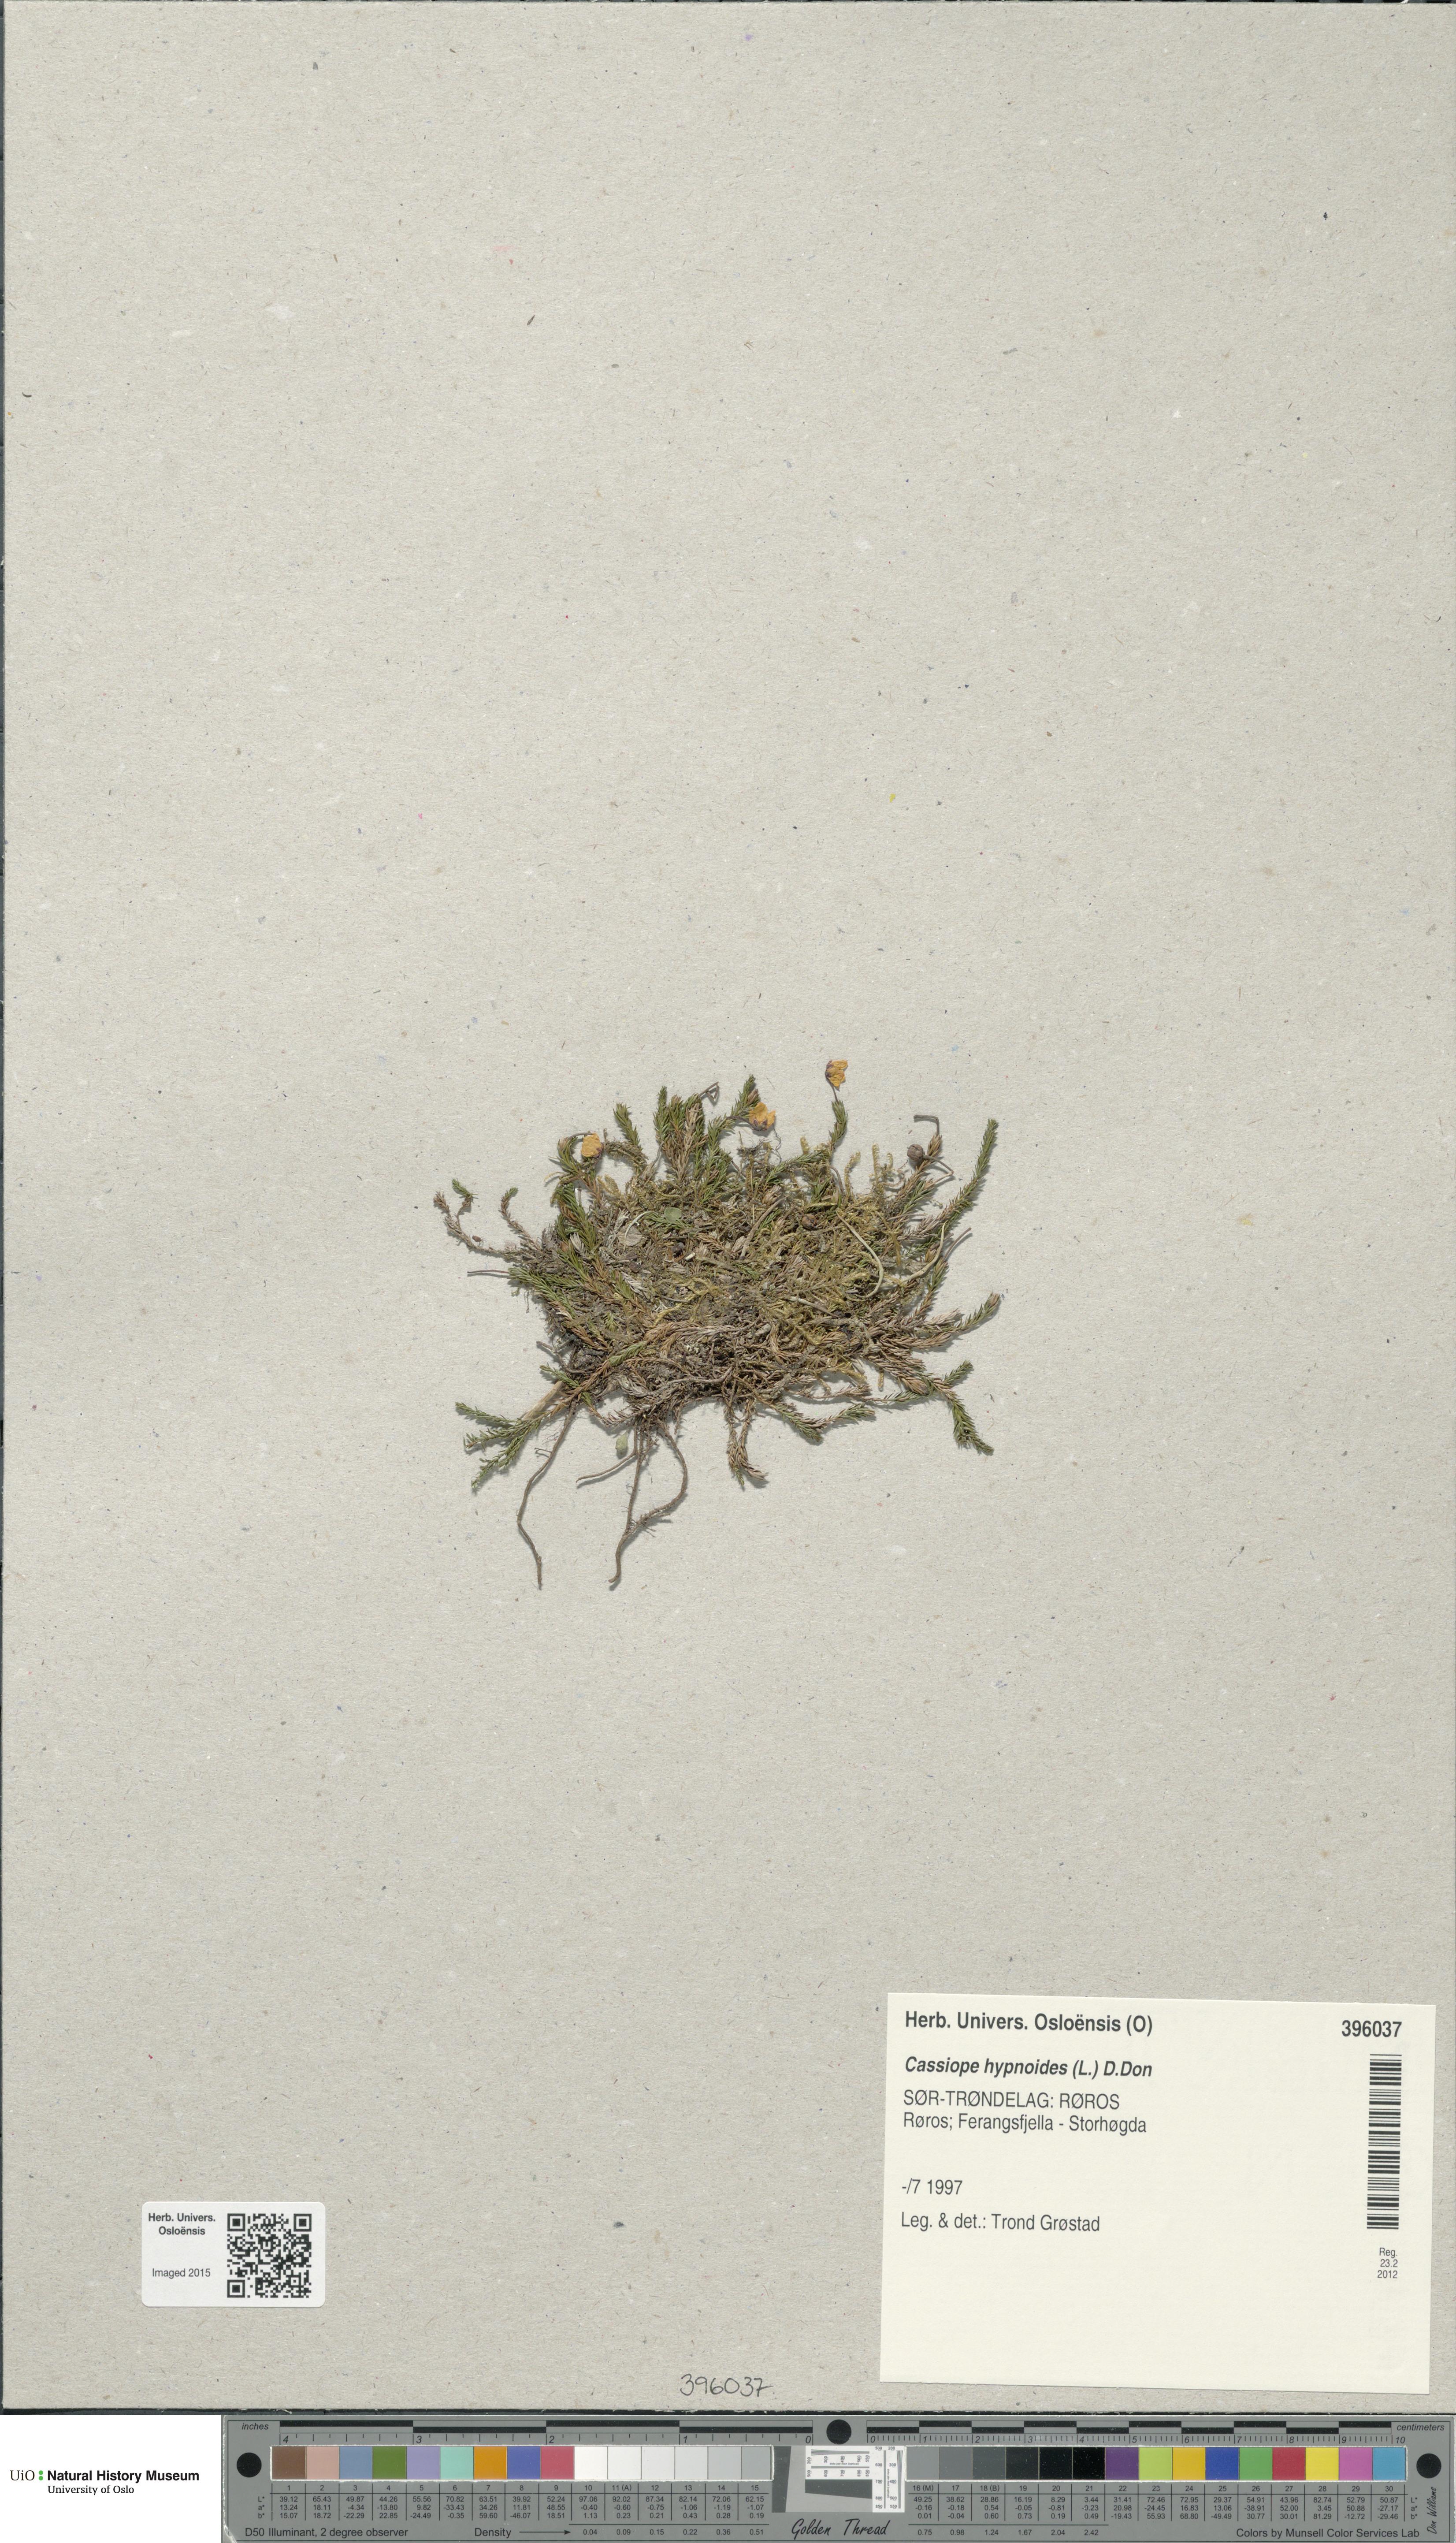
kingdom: Plantae
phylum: Tracheophyta
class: Magnoliopsida
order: Ericales
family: Ericaceae
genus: Harrimanella
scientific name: Harrimanella hypnoides
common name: Moss bell heather
